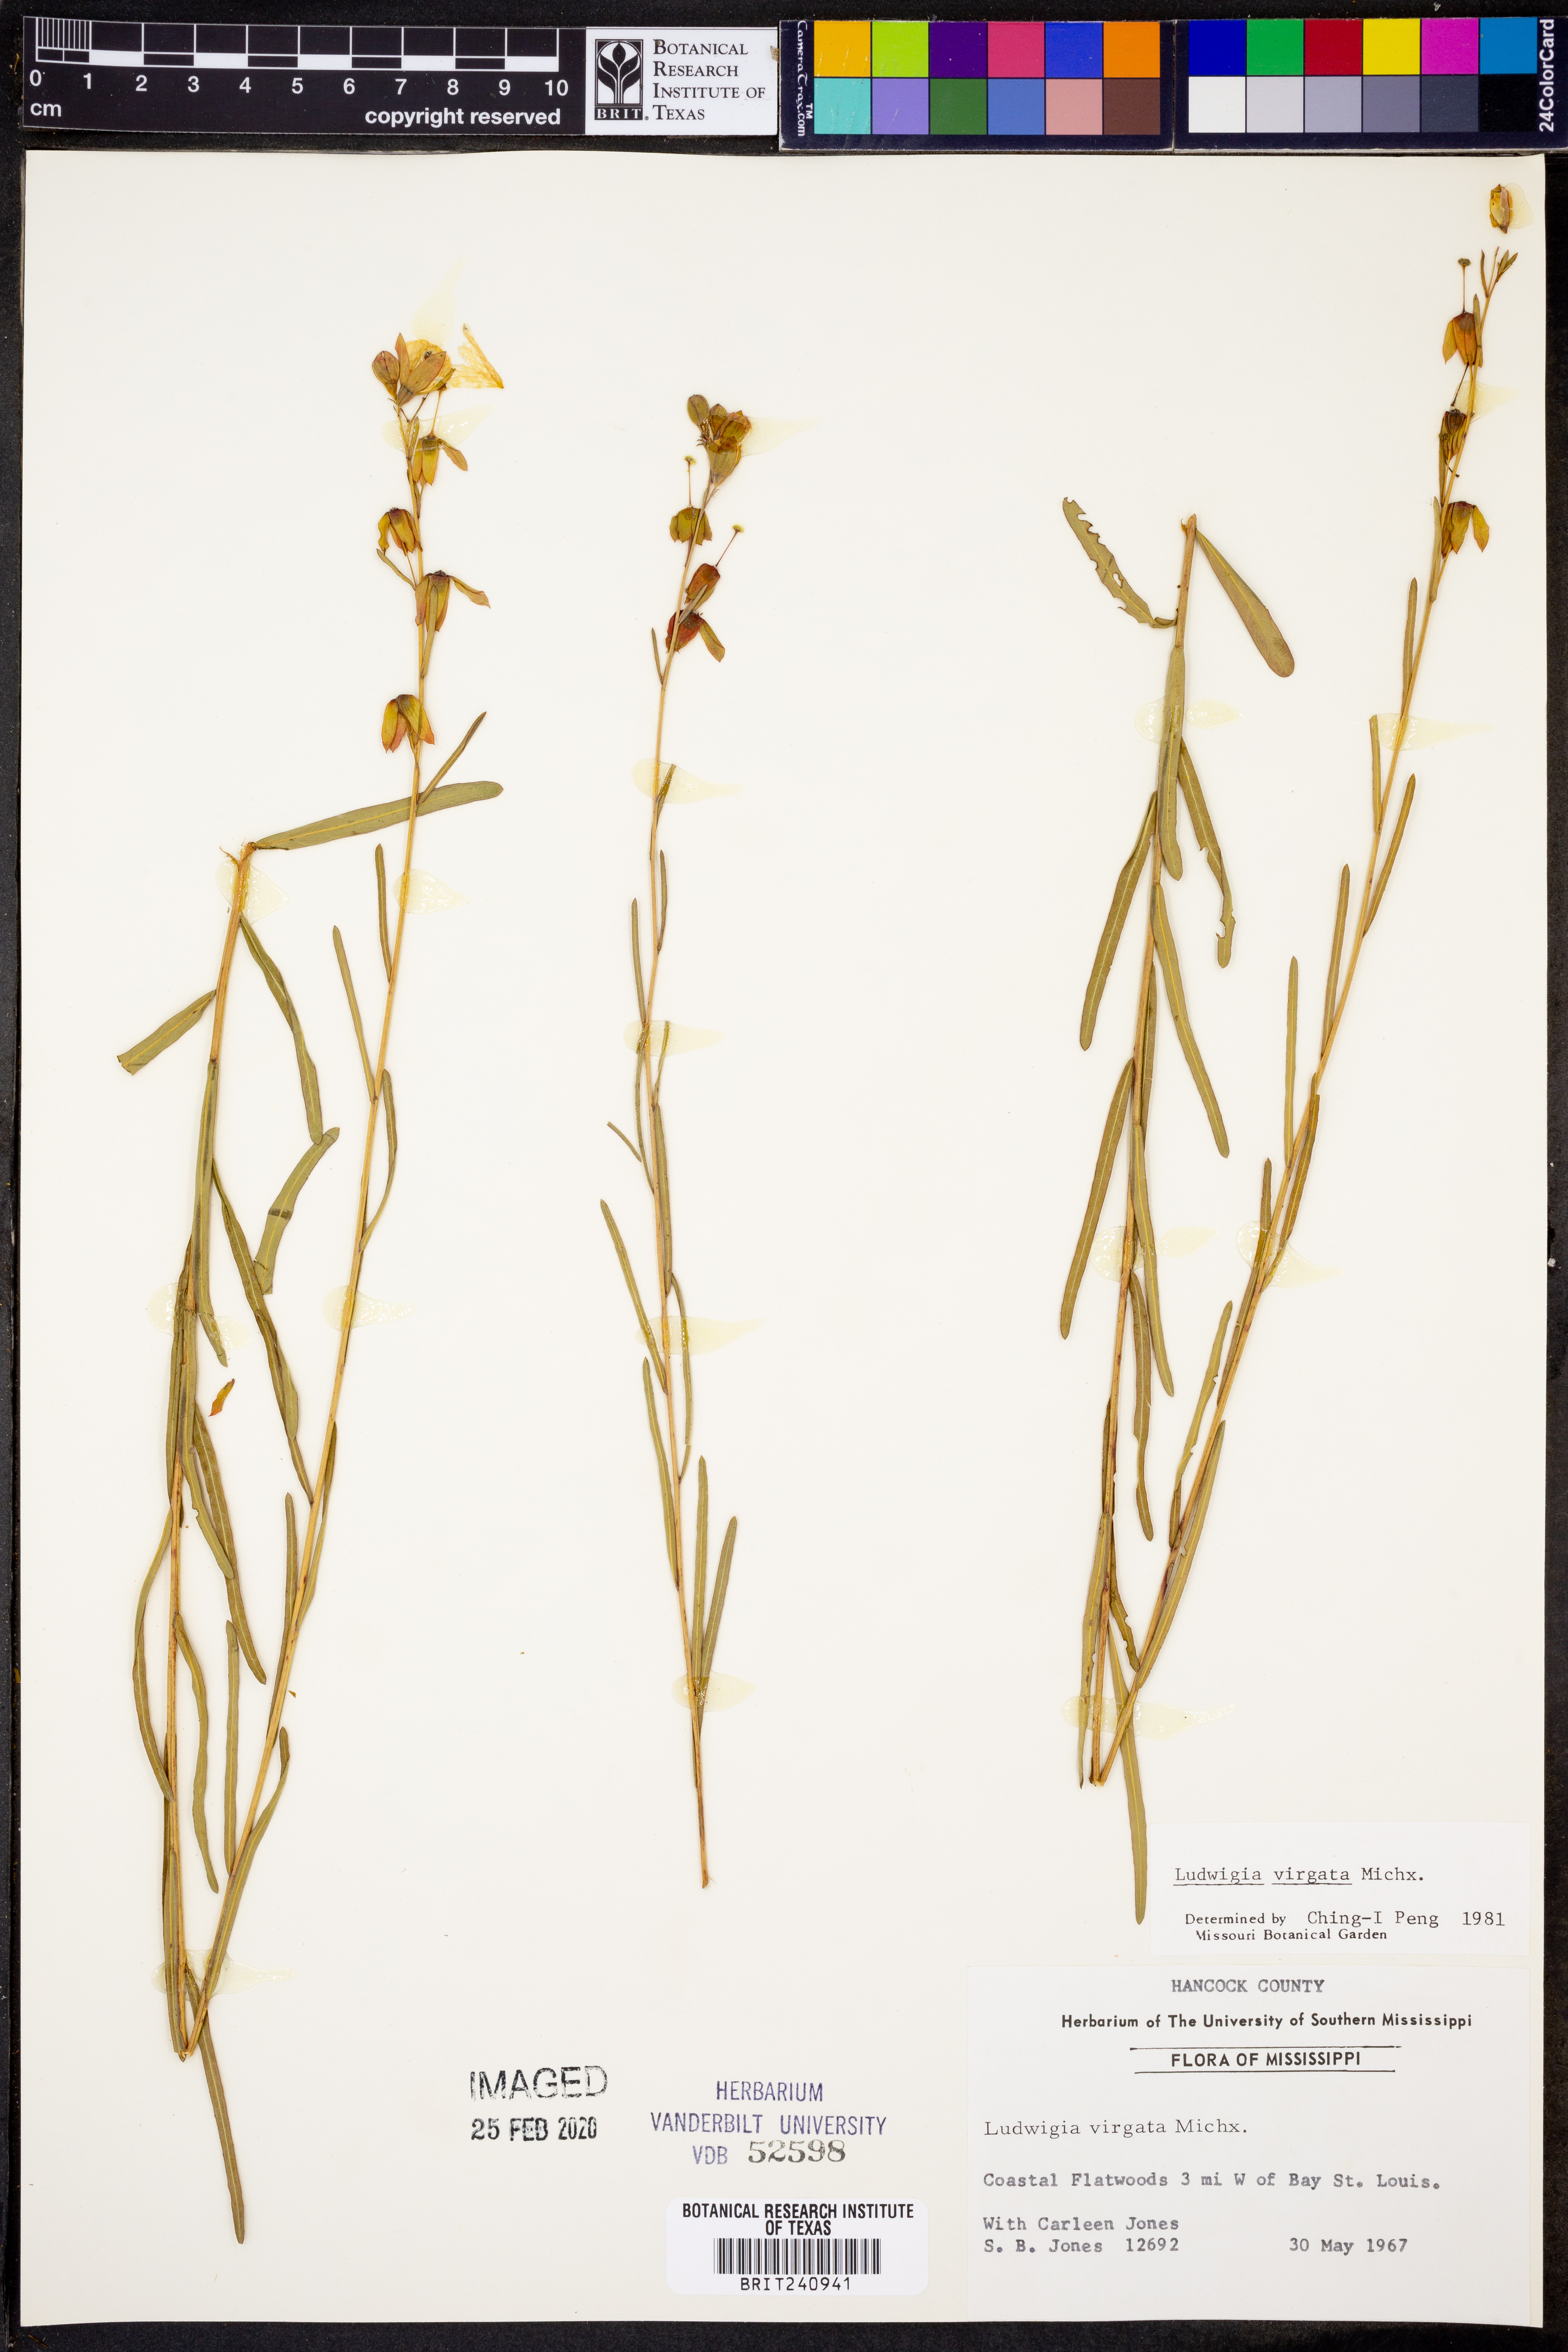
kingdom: Plantae
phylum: Tracheophyta
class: Magnoliopsida
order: Myrtales
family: Onagraceae
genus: Ludwigia
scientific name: Ludwigia virgata
